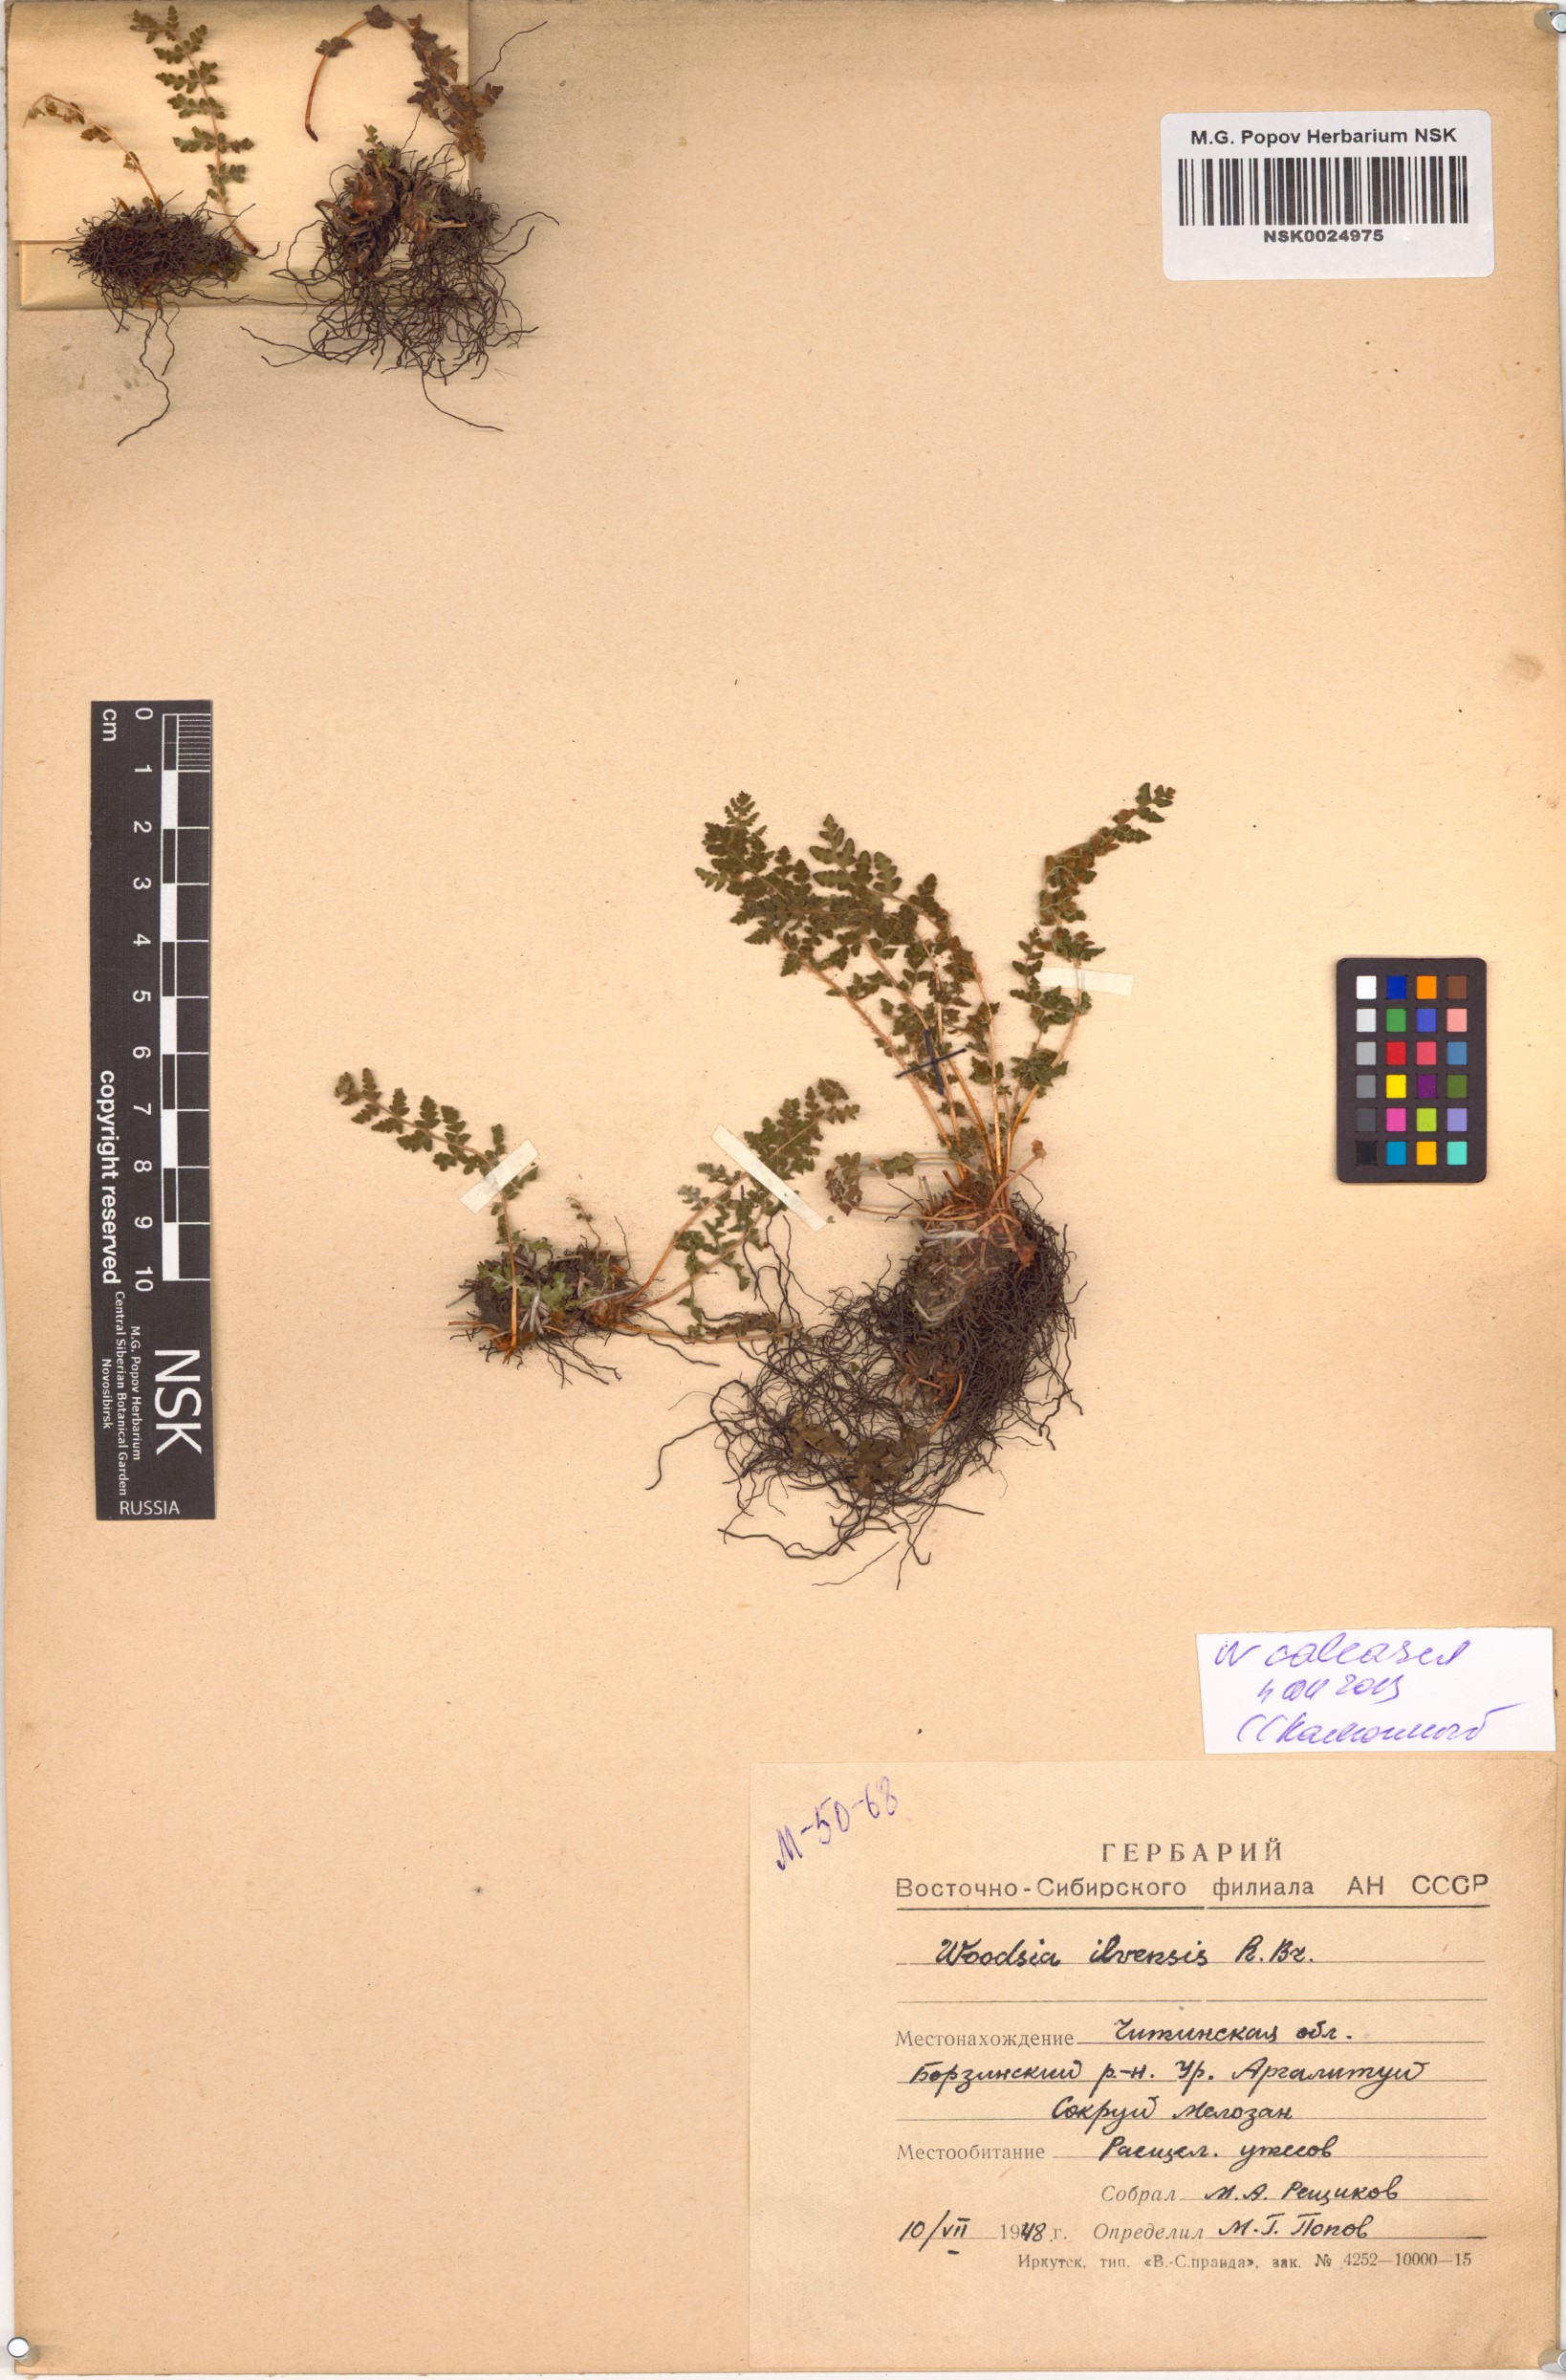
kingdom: Plantae
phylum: Tracheophyta
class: Polypodiopsida
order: Polypodiales
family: Woodsiaceae
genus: Woodsia
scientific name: Woodsia calcarea
